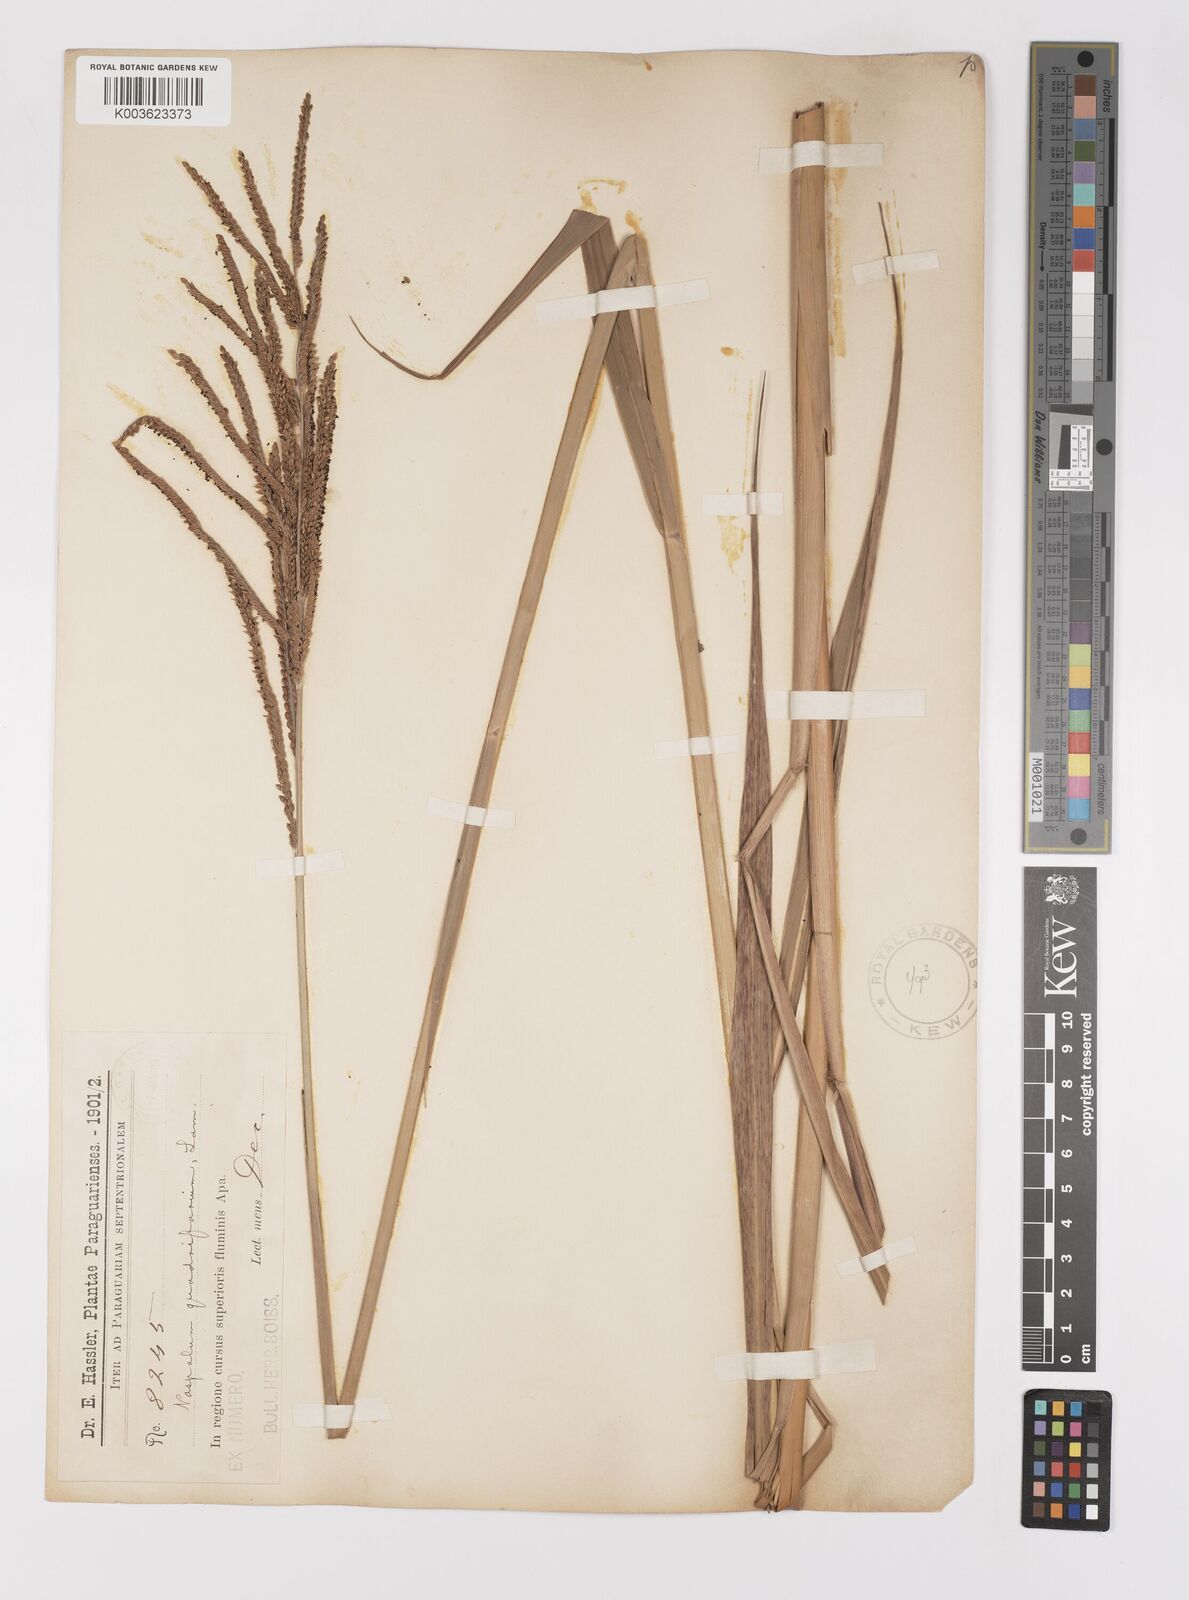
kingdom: Plantae
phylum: Tracheophyta
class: Liliopsida
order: Poales
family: Poaceae
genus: Paspalum
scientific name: Paspalum quadrifarium
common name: Tussock paspalum
